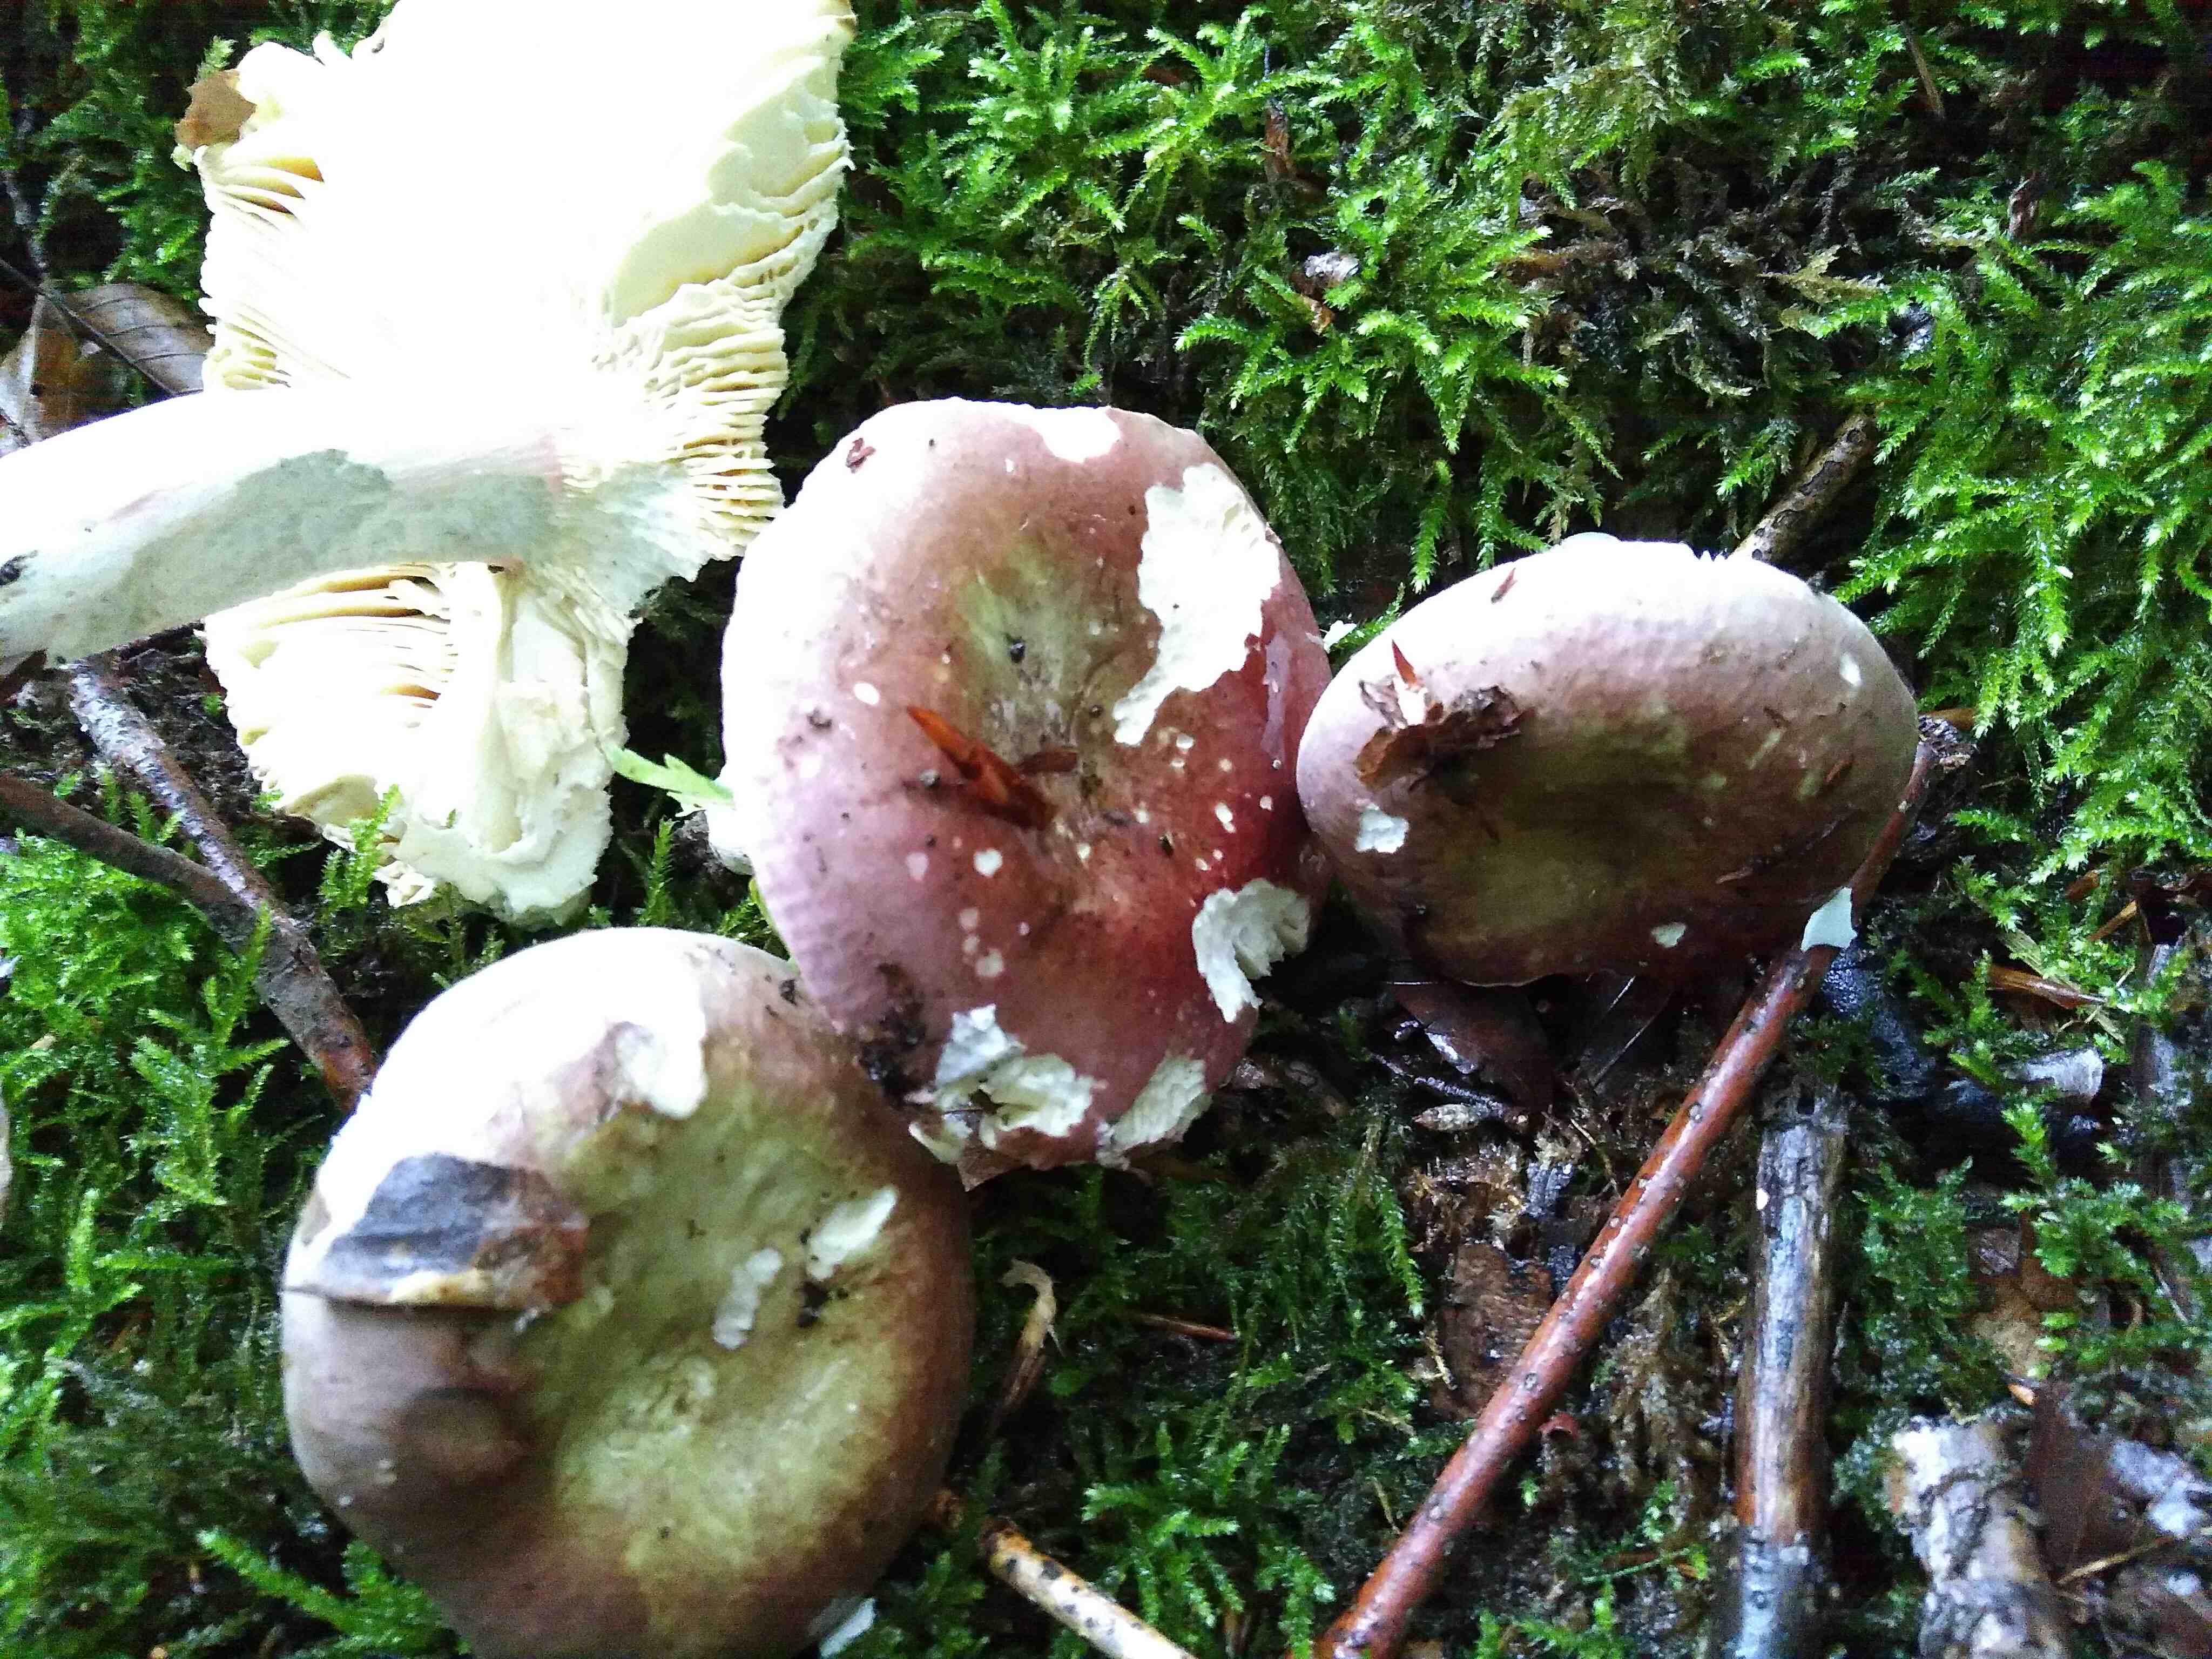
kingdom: Fungi
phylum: Basidiomycota
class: Agaricomycetes
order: Russulales
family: Russulaceae
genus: Russula
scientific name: Russula olivacea
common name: stor skørhat
